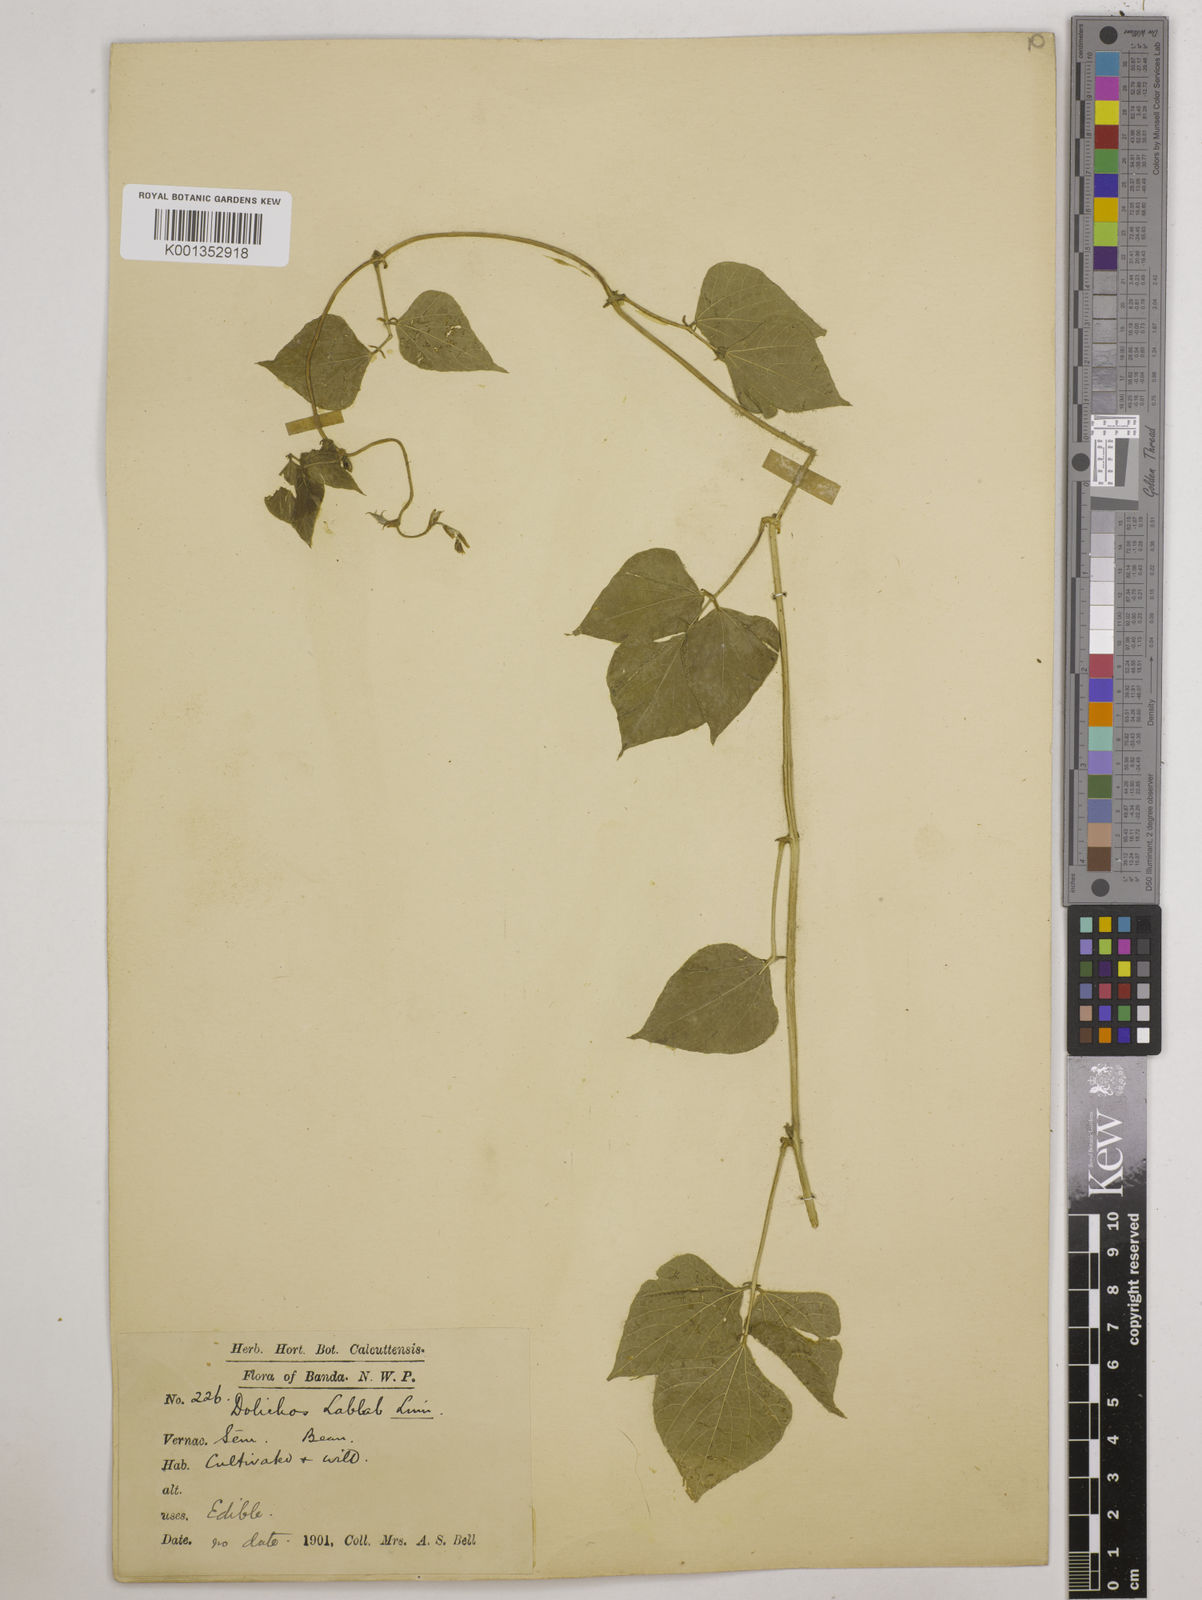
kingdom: Plantae
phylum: Tracheophyta
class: Magnoliopsida
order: Fabales
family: Fabaceae
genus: Lablab
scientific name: Lablab purpureus
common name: Lablab-bean
